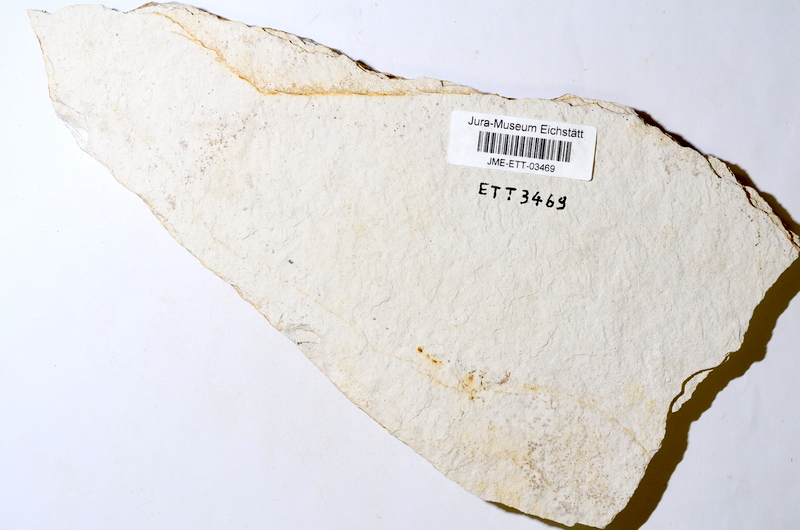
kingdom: Animalia
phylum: Chordata
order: Salmoniformes
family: Orthogonikleithridae
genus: Orthogonikleithrus
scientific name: Orthogonikleithrus hoelli
